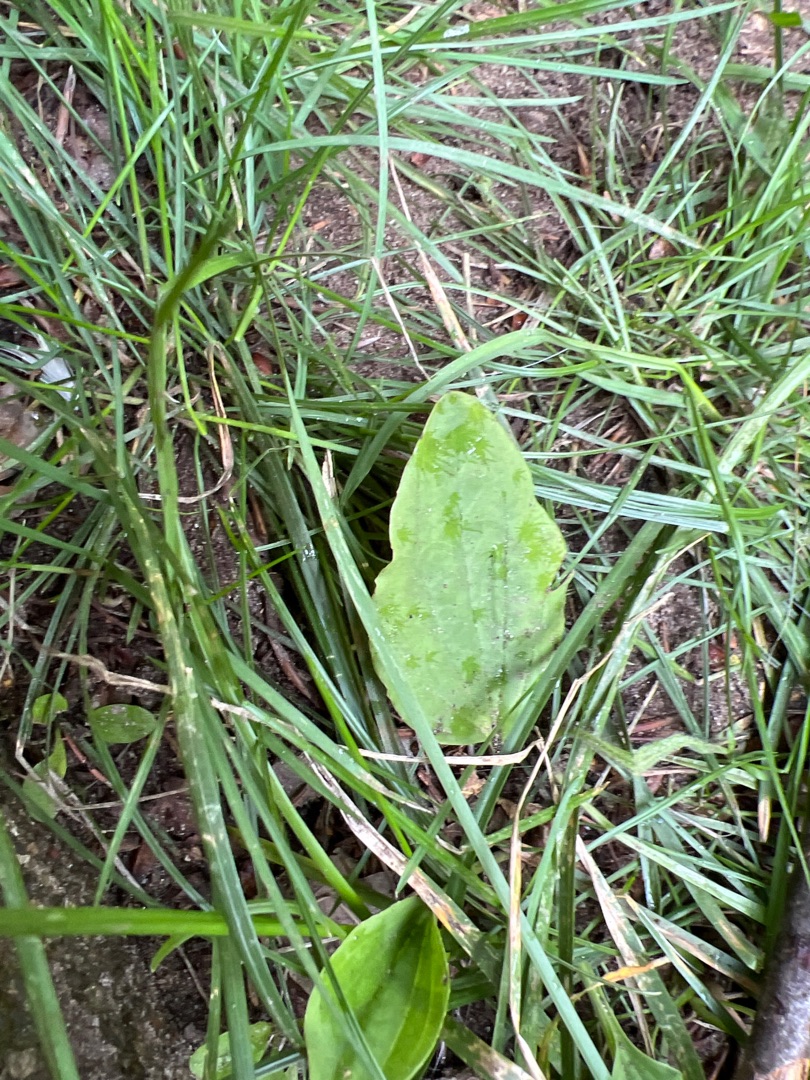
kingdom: Plantae
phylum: Tracheophyta
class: Magnoliopsida
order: Lamiales
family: Plantaginaceae
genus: Plantago
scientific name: Plantago major
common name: Glat vejbred
